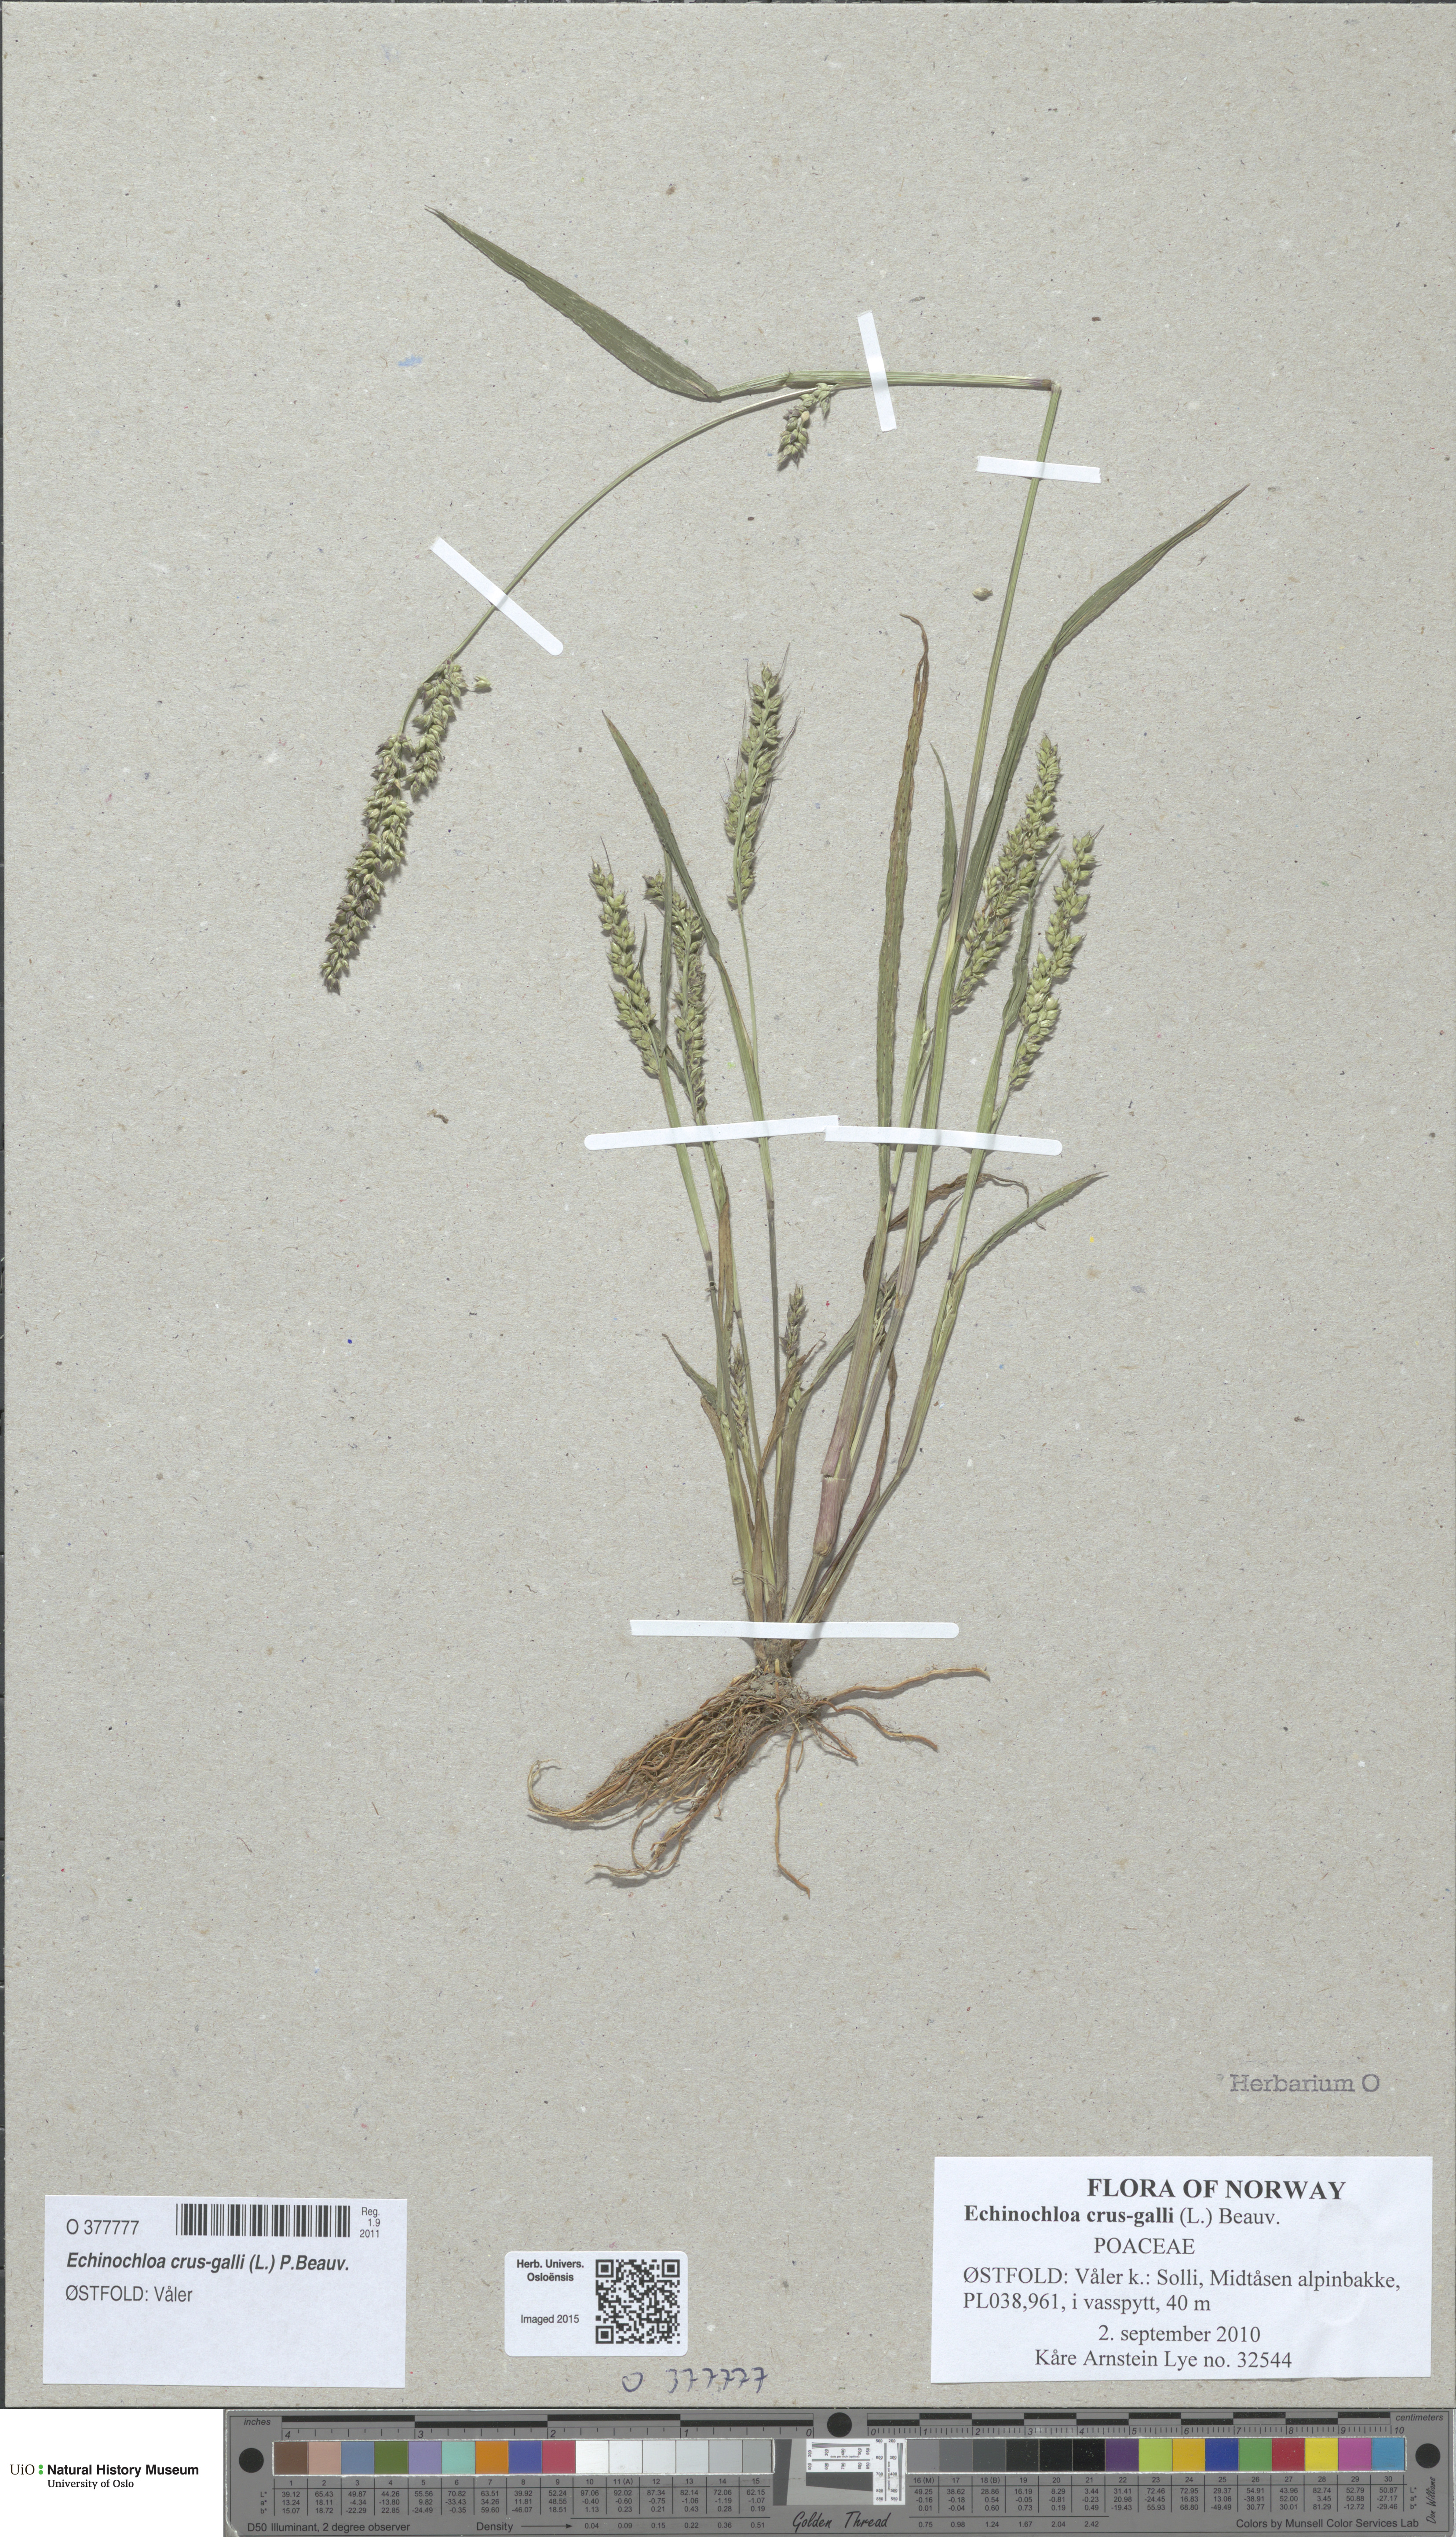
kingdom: Plantae
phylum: Tracheophyta
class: Liliopsida
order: Poales
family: Poaceae
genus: Echinochloa
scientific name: Echinochloa crus-galli
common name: Cockspur
